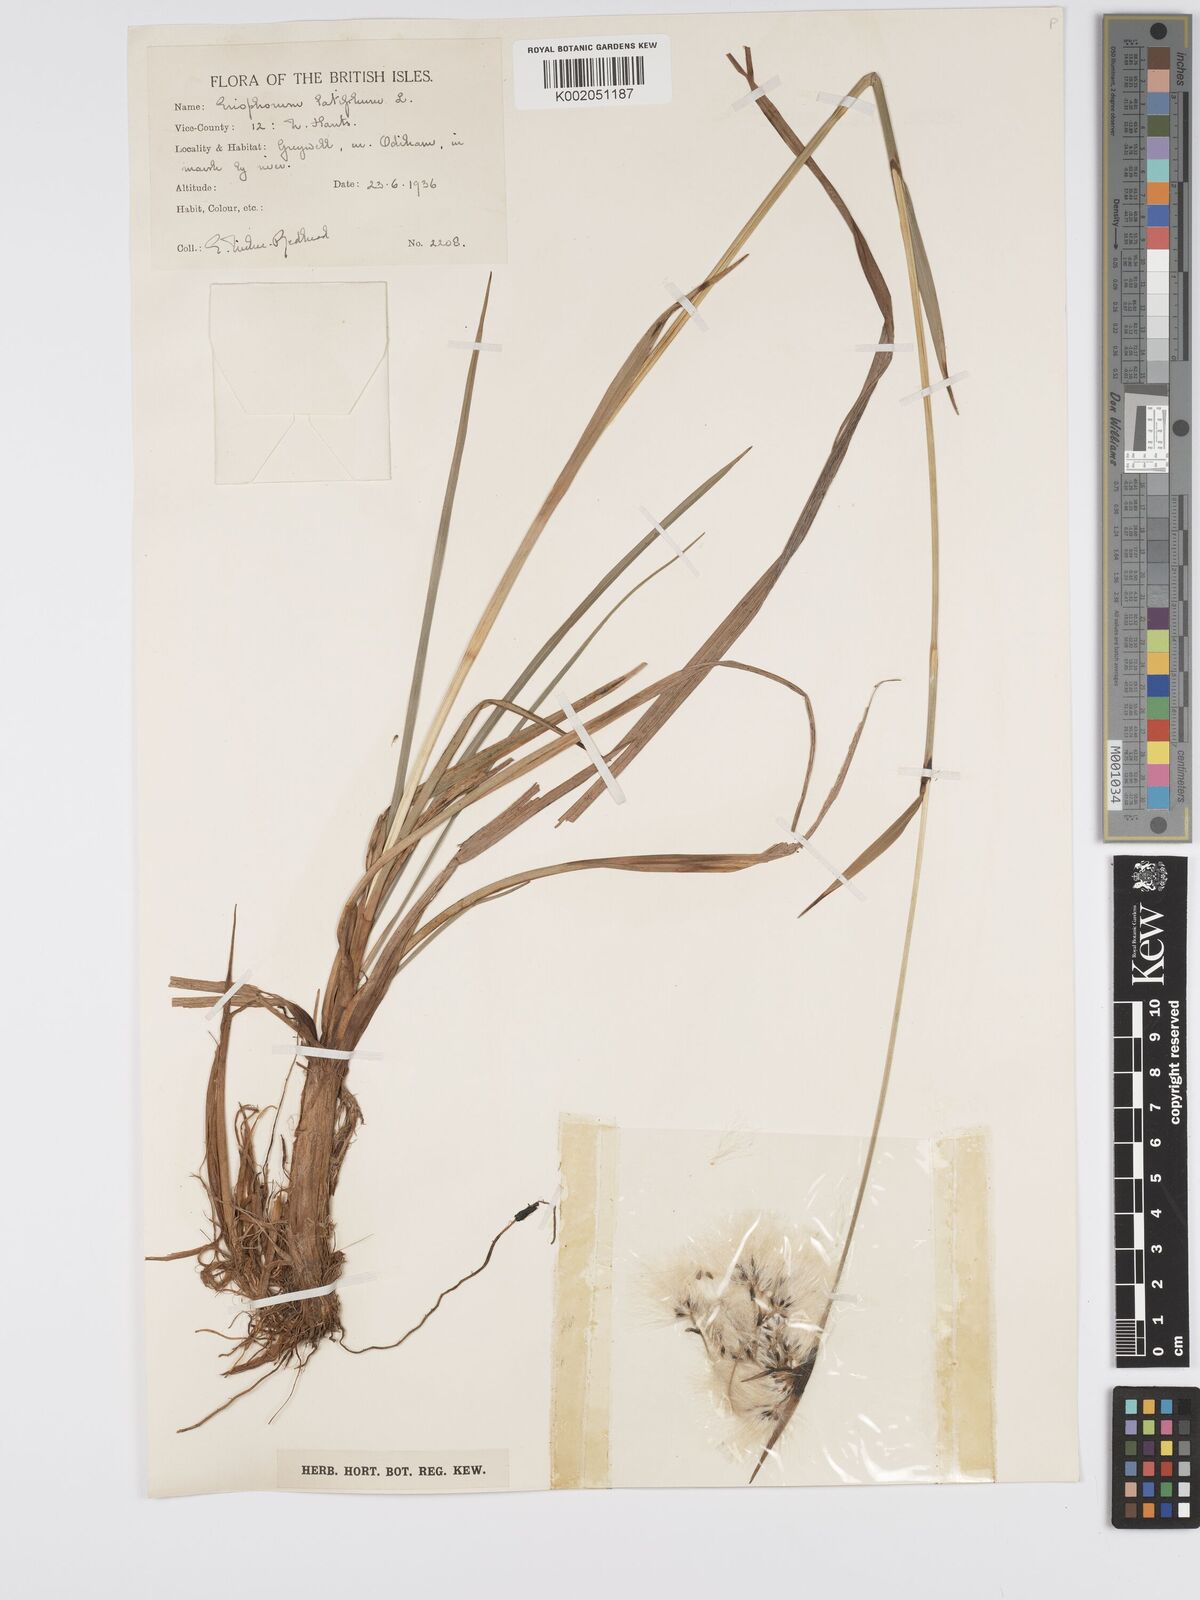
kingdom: Plantae
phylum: Tracheophyta
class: Liliopsida
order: Poales
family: Cyperaceae
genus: Eriophorum
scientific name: Eriophorum latifolium
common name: Broad-leaved cottongrass
